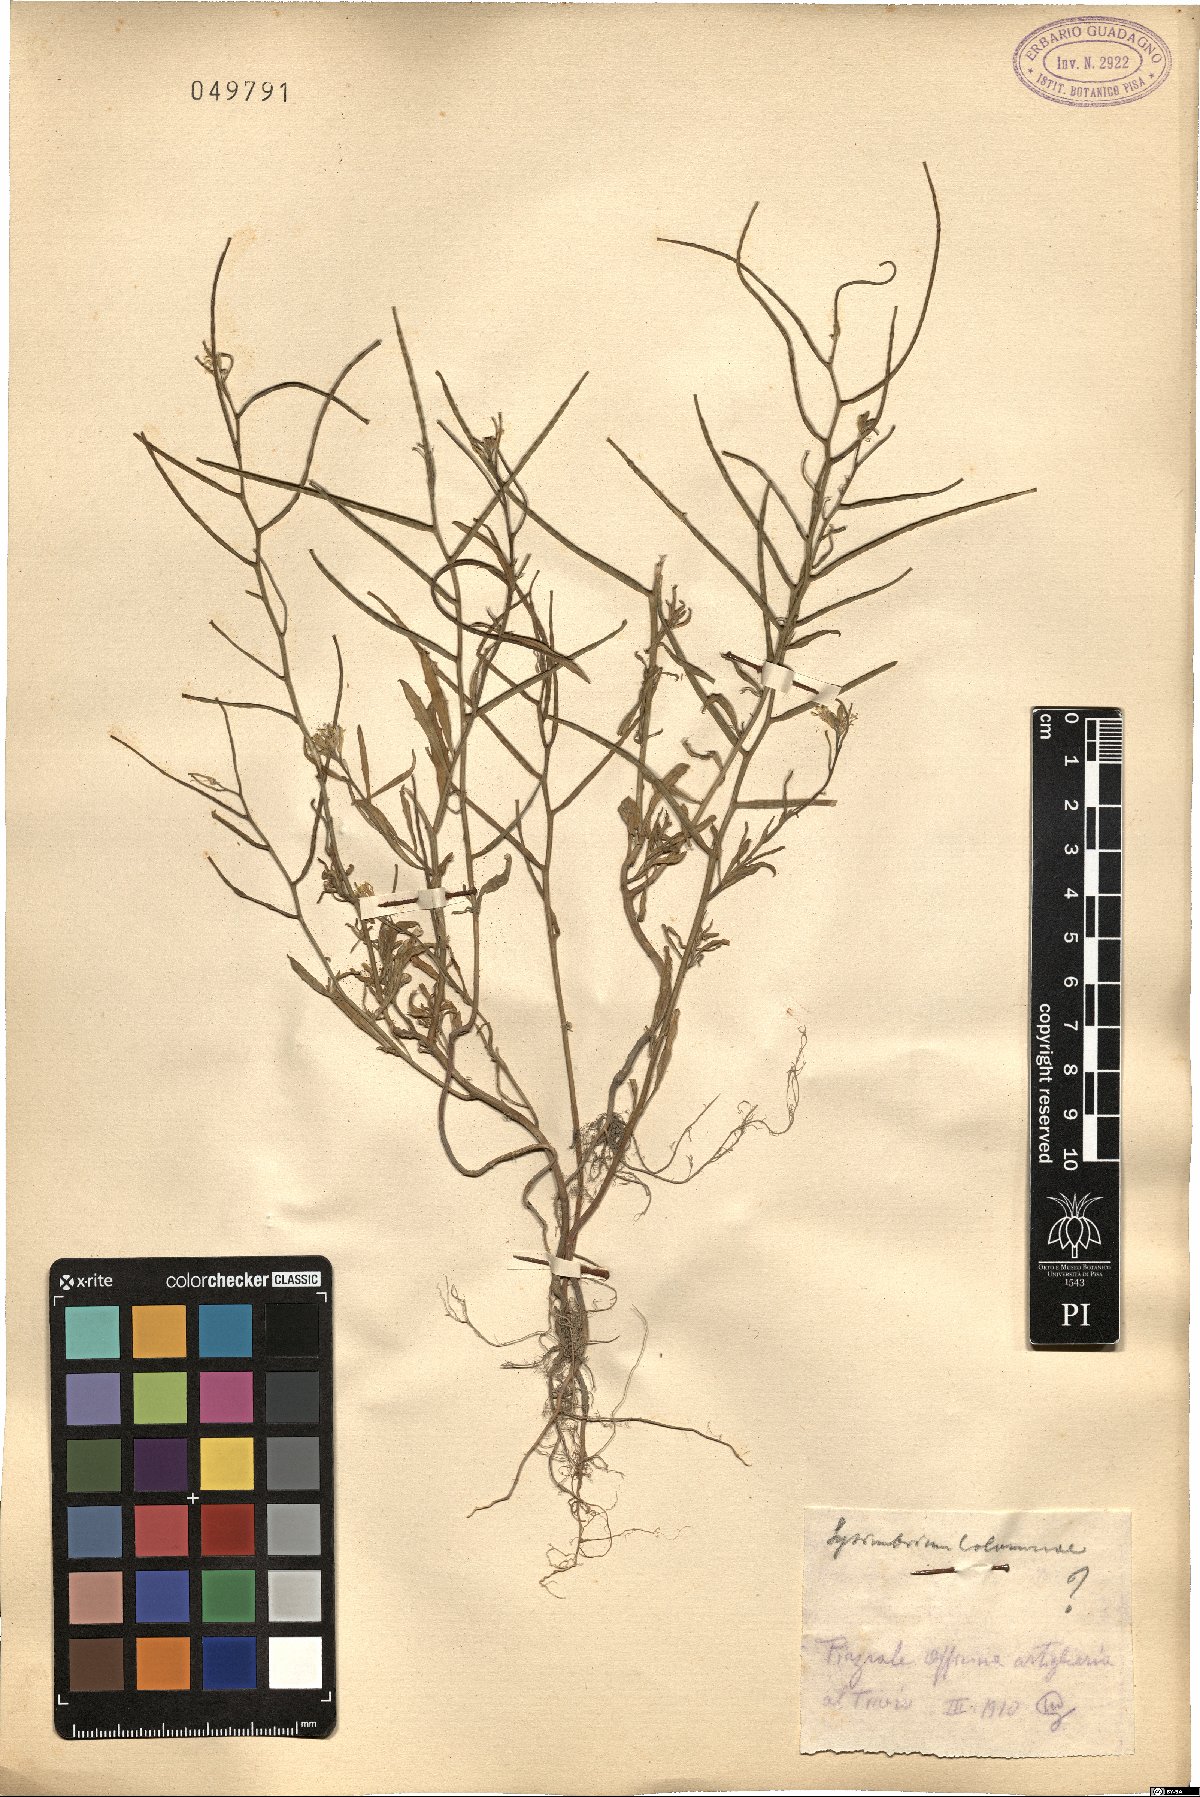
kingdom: Plantae
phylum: Tracheophyta
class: Magnoliopsida
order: Brassicales
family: Brassicaceae
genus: Sisymbrium
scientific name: Sisymbrium orientale
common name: Eastern rocket
